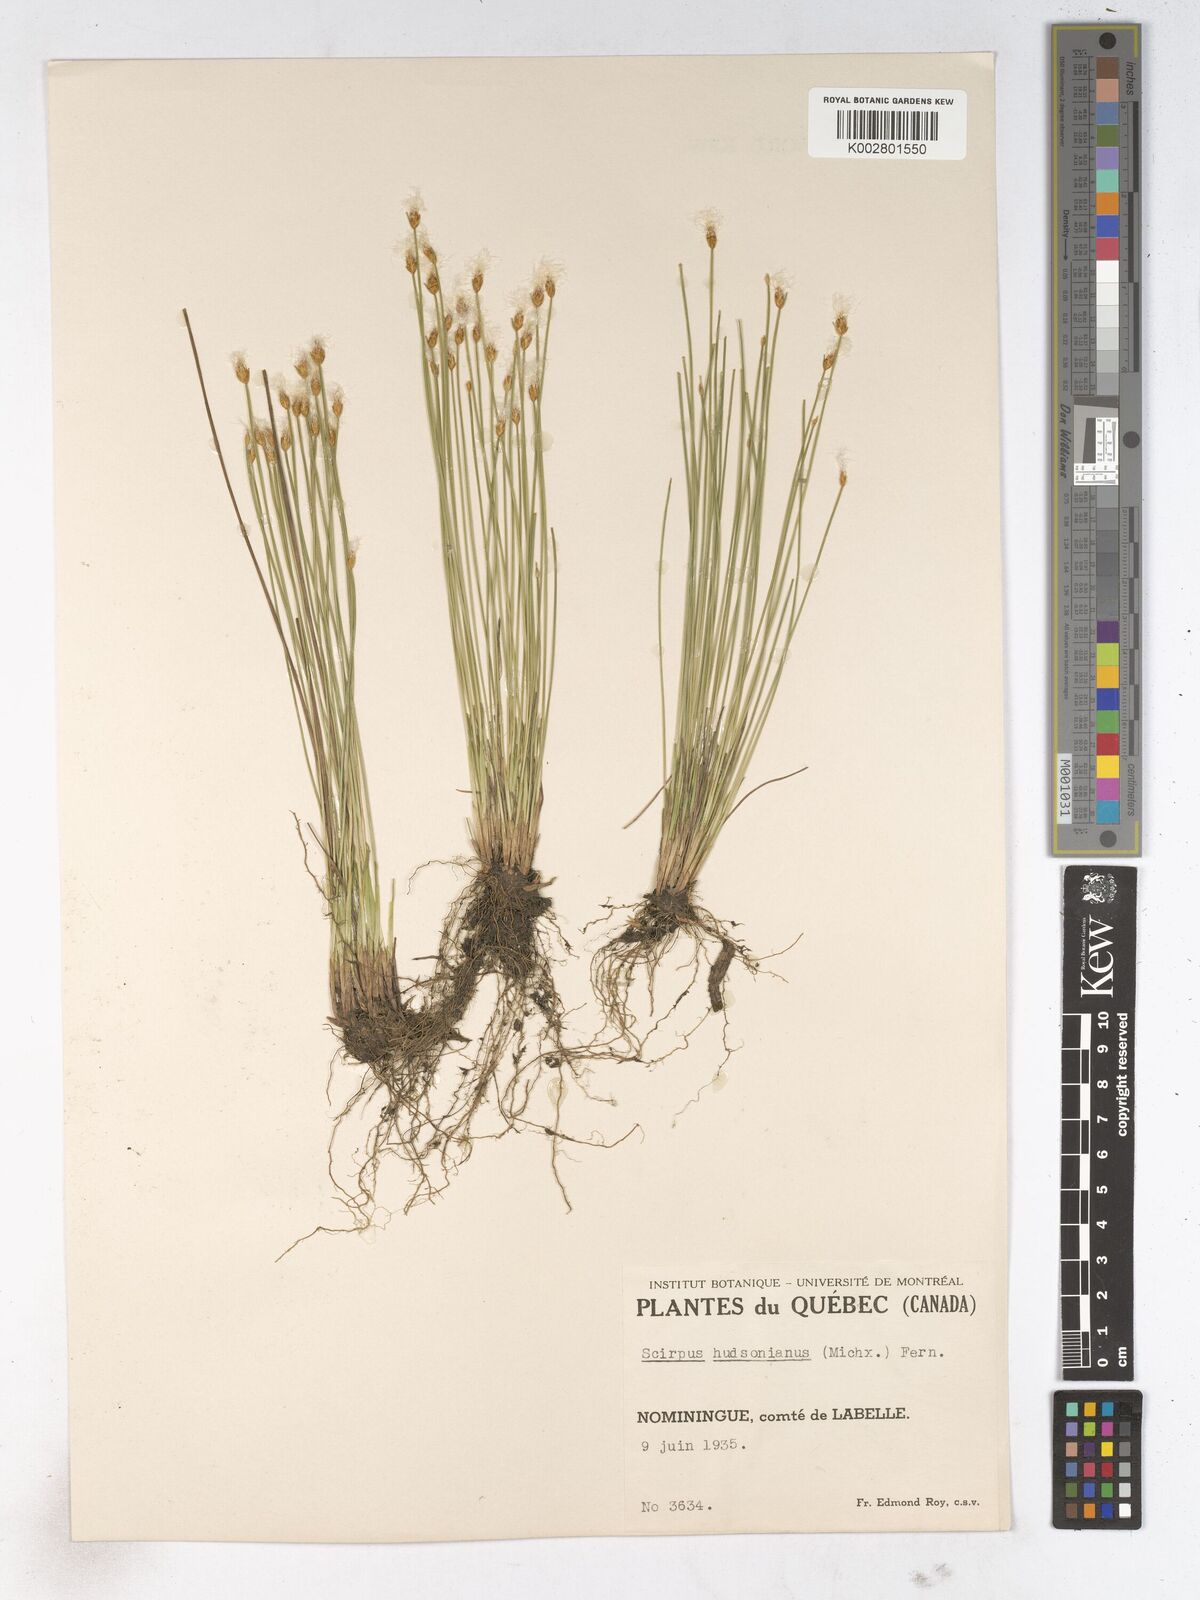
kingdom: Plantae
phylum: Tracheophyta
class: Liliopsida
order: Poales
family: Cyperaceae
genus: Trichophorum
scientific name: Trichophorum alpinum
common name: Alpine bulrush
